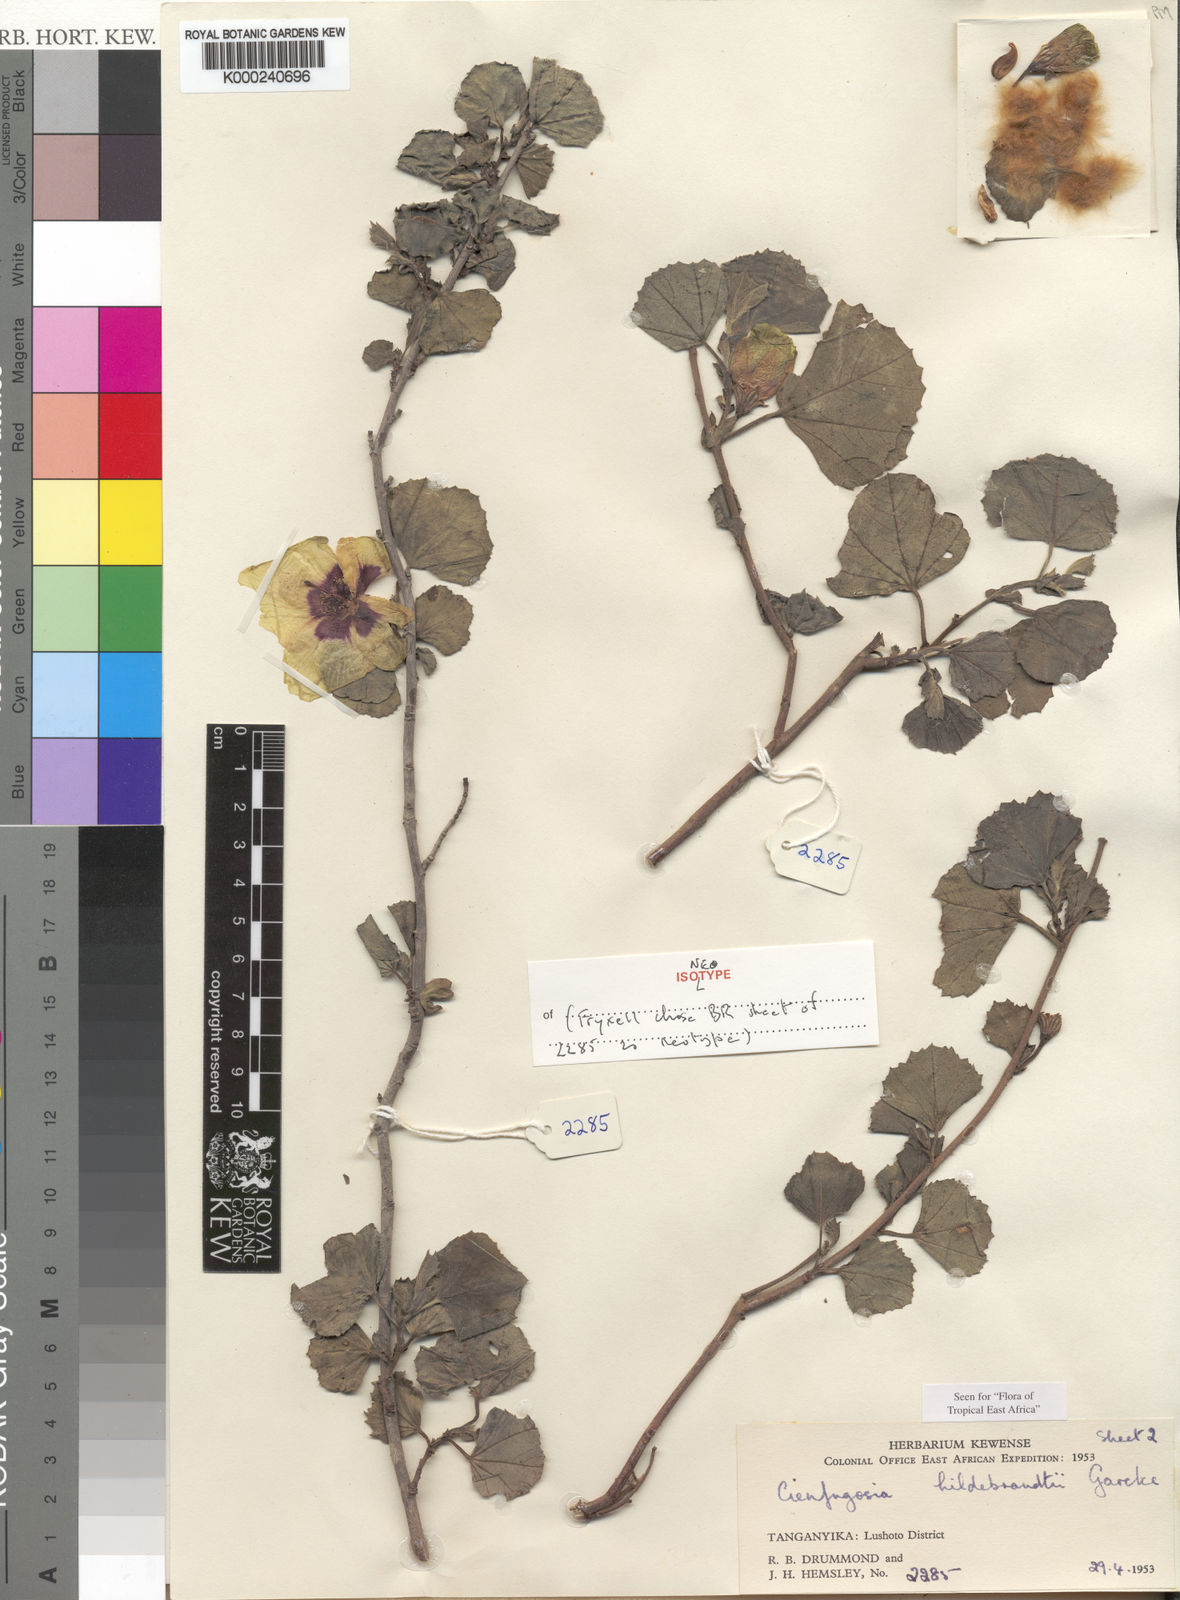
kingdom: Plantae
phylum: Tracheophyta
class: Magnoliopsida
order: Malvales
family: Malvaceae
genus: Cienfuegosia
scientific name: Cienfuegosia hildebrandtii
